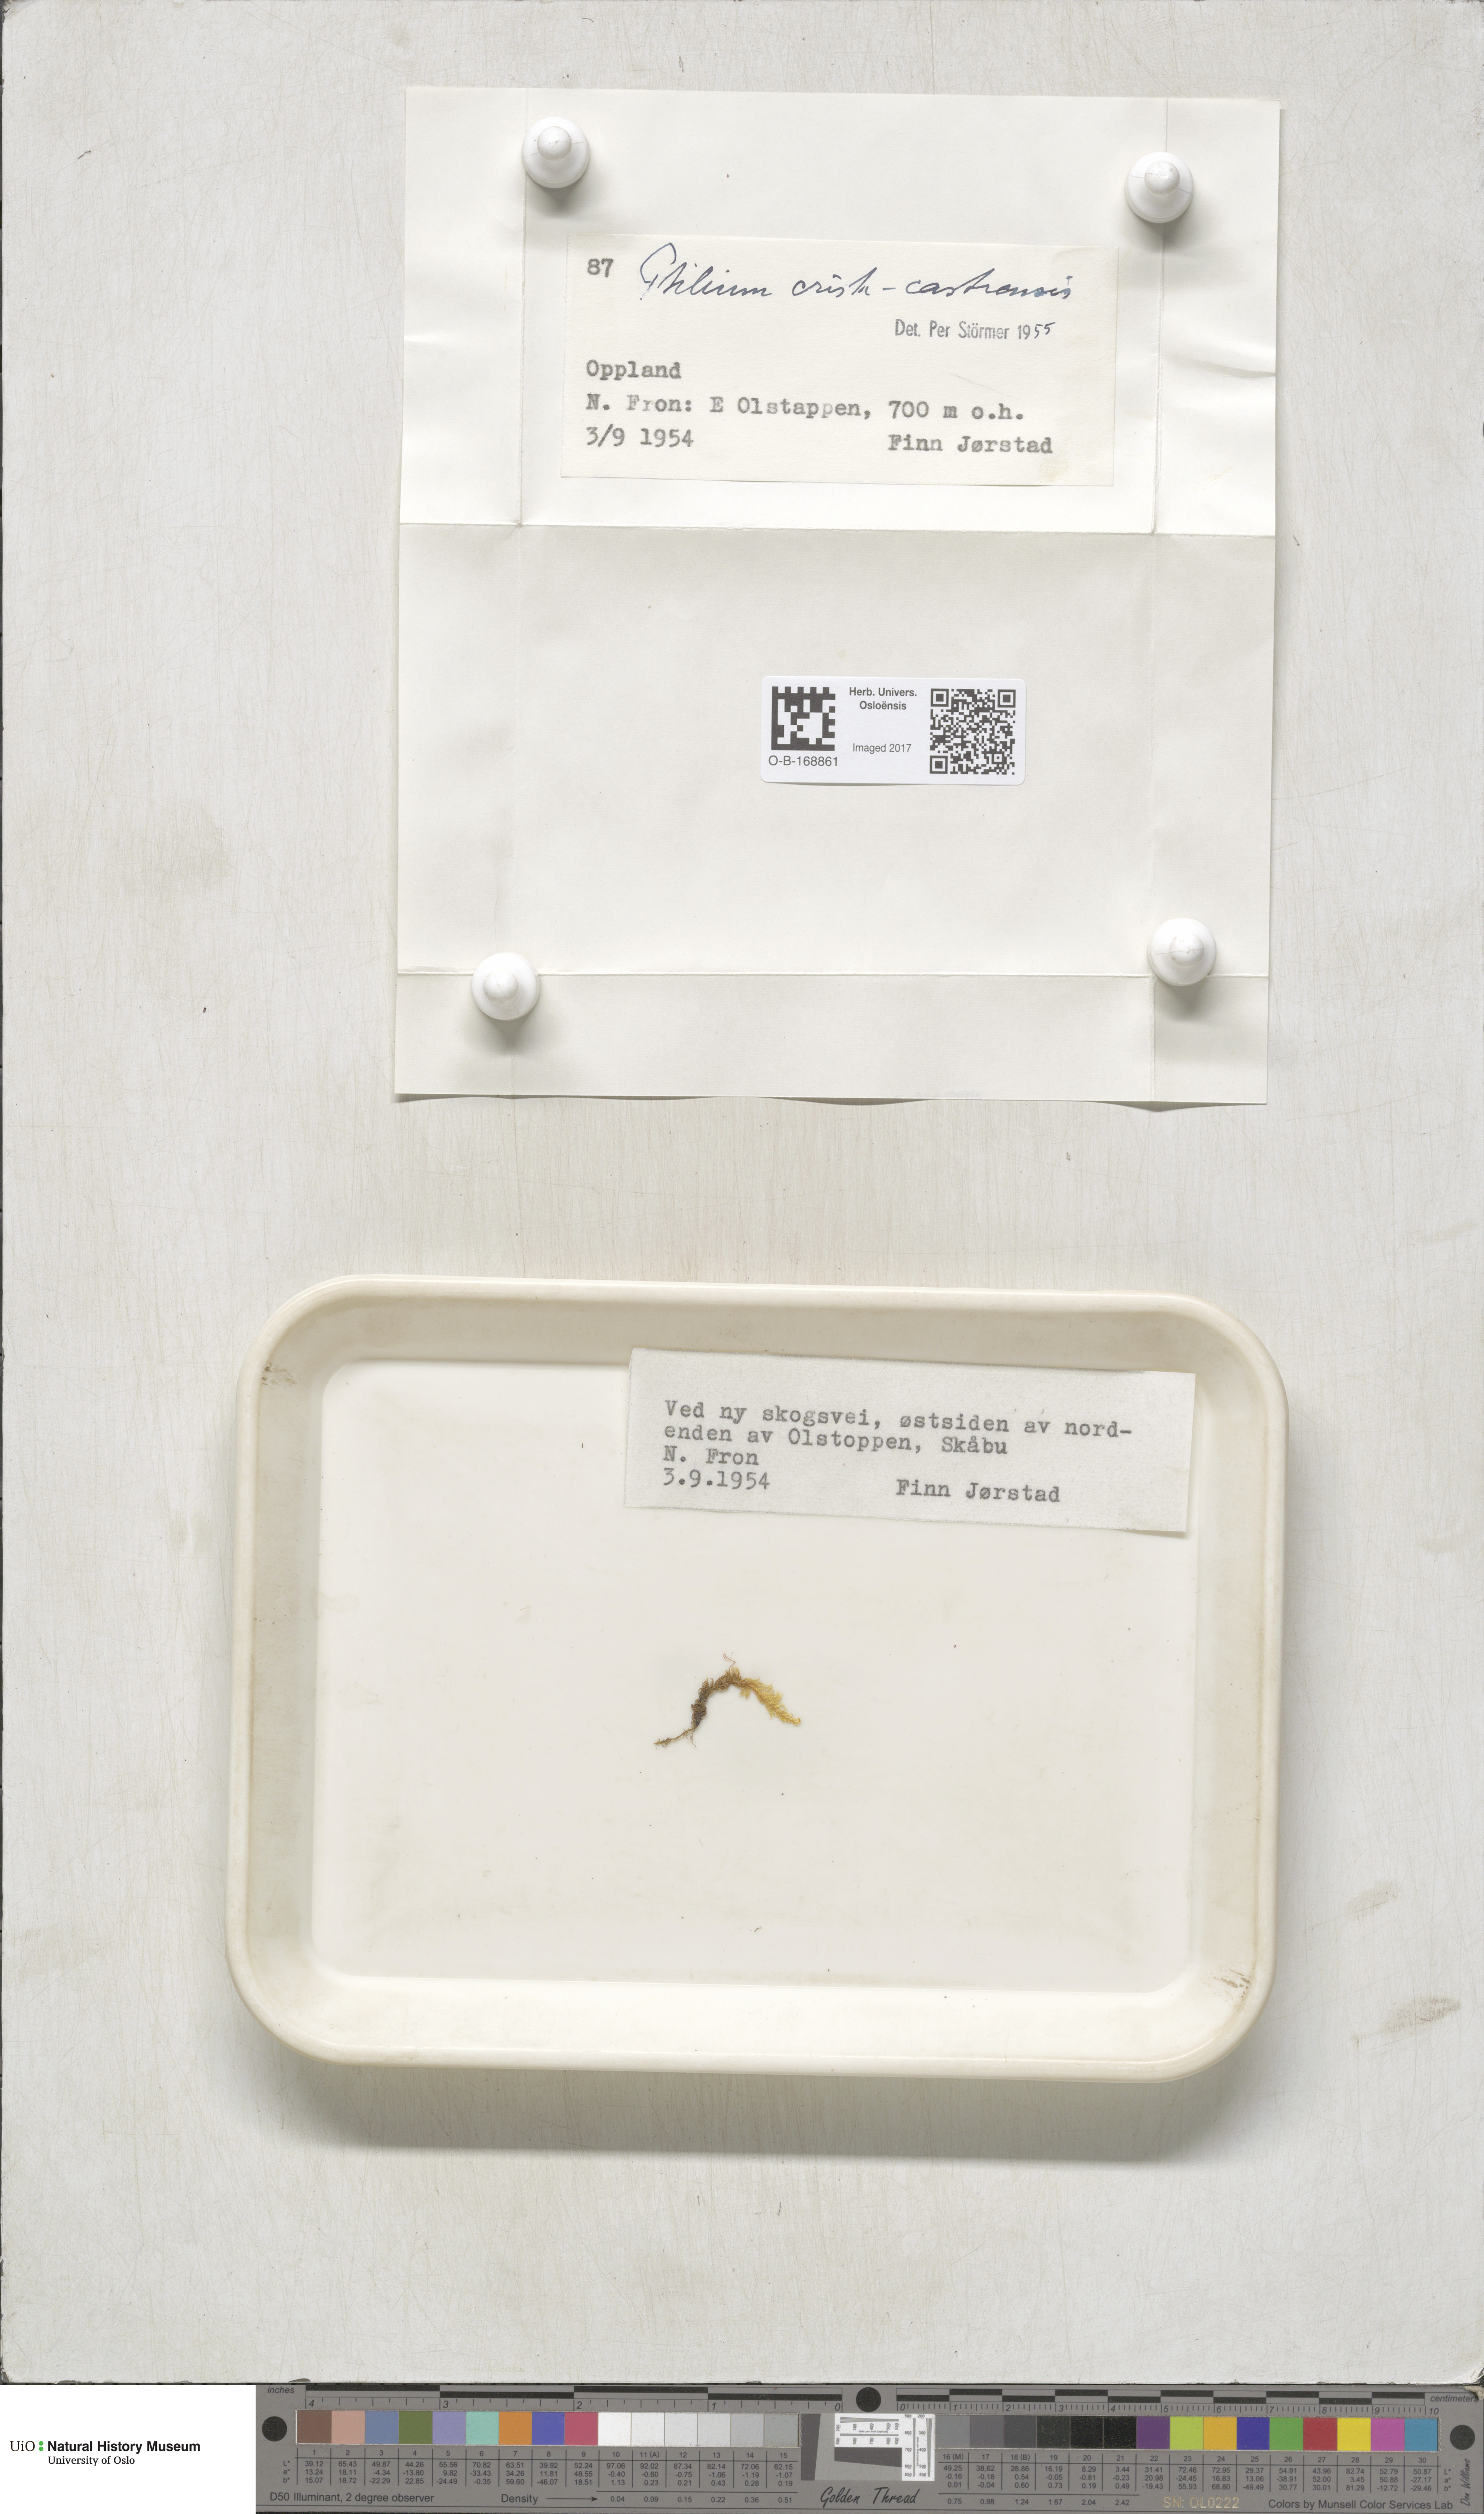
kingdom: Plantae
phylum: Bryophyta
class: Bryopsida
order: Hypnales
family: Pylaisiaceae
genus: Ptilium
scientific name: Ptilium crista-castrensis
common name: Knight's plume moss
